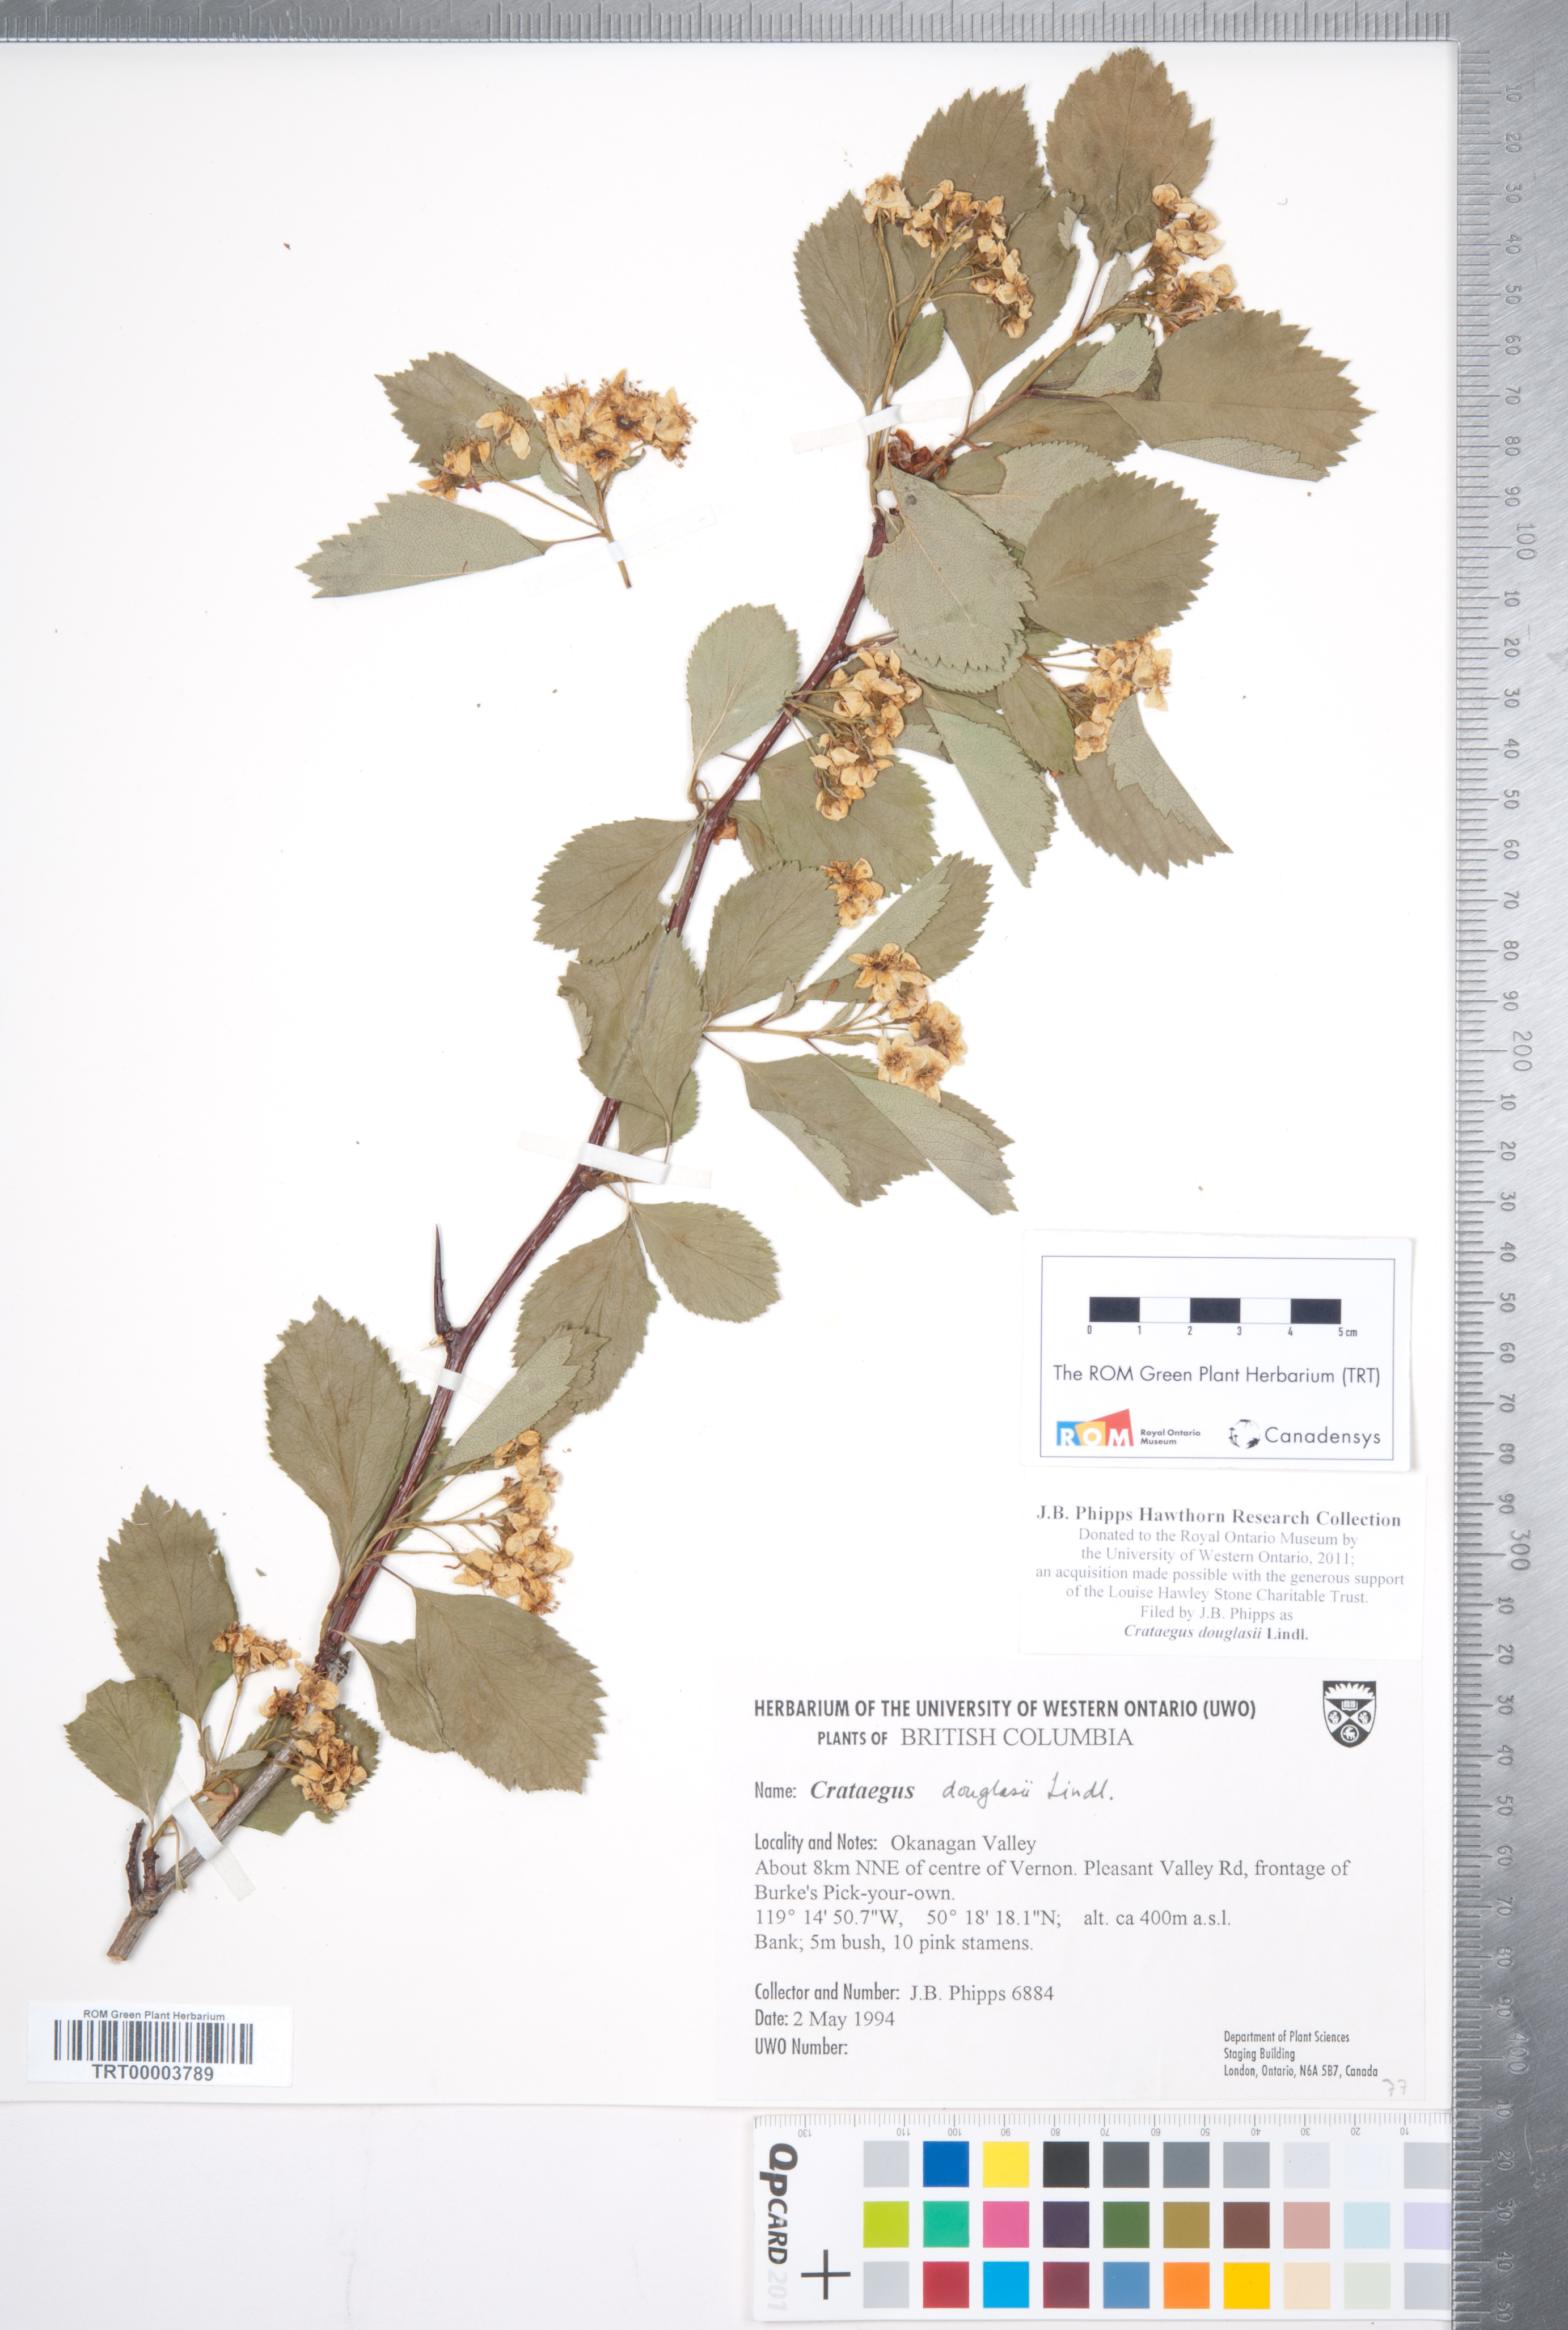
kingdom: Plantae
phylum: Tracheophyta
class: Magnoliopsida
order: Rosales
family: Rosaceae
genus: Crataegus
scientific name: Crataegus douglasii
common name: Black hawthorn
